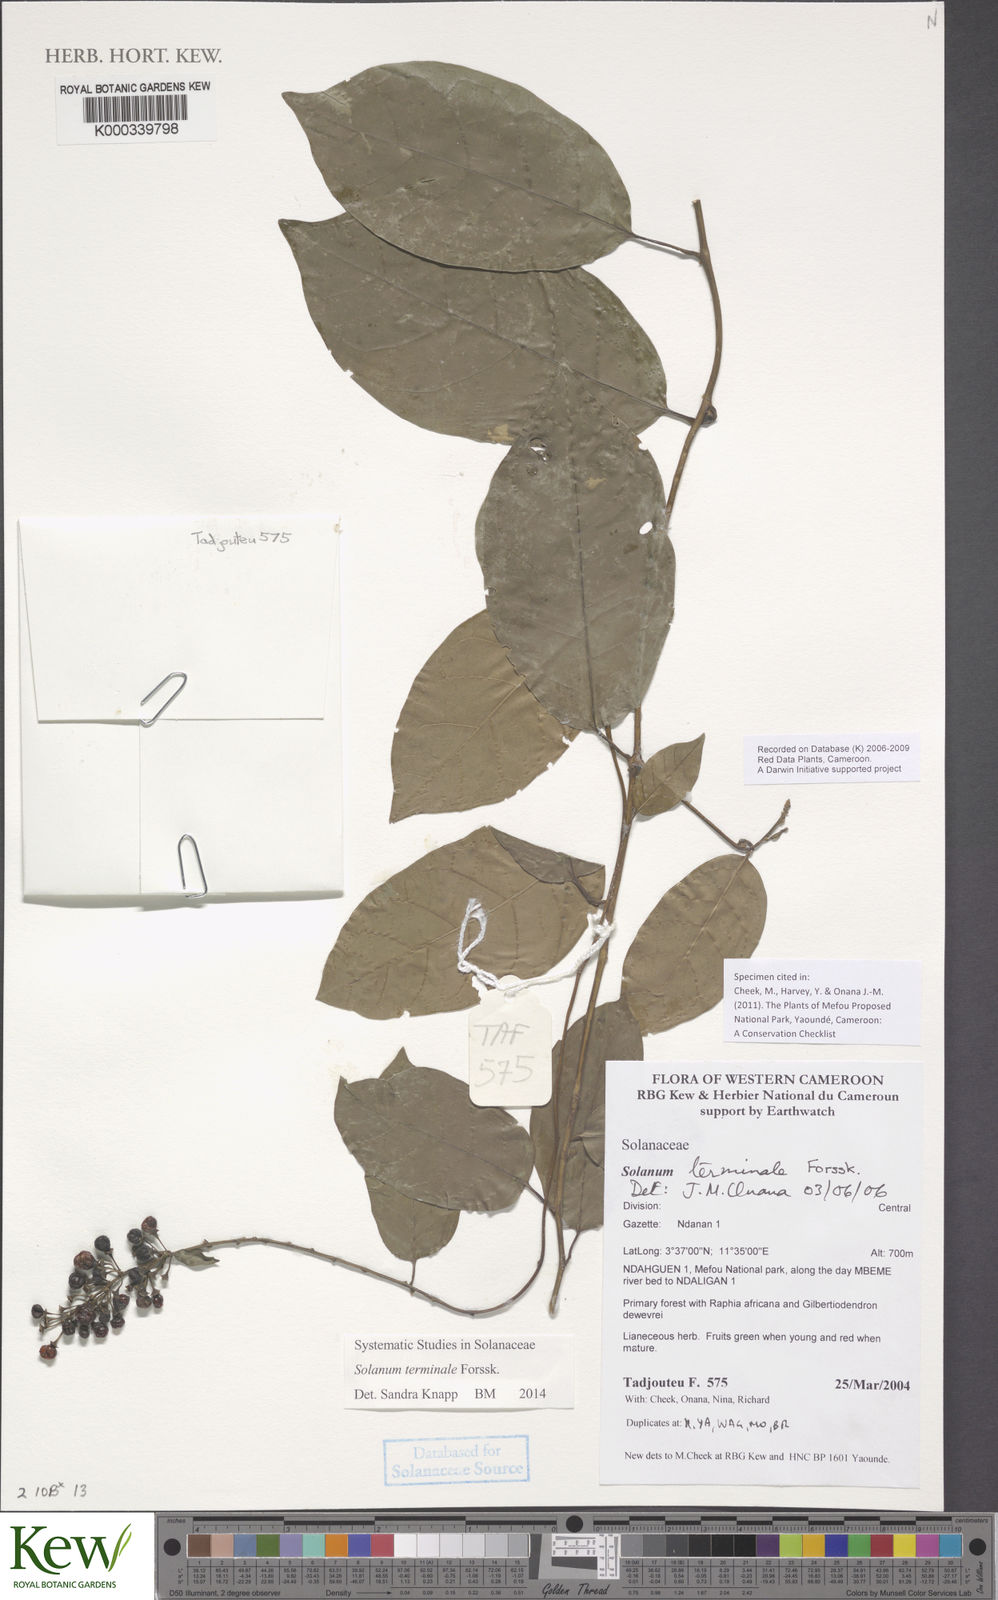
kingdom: Plantae
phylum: Tracheophyta
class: Magnoliopsida
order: Solanales
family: Solanaceae
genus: Solanum
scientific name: Solanum terminale
